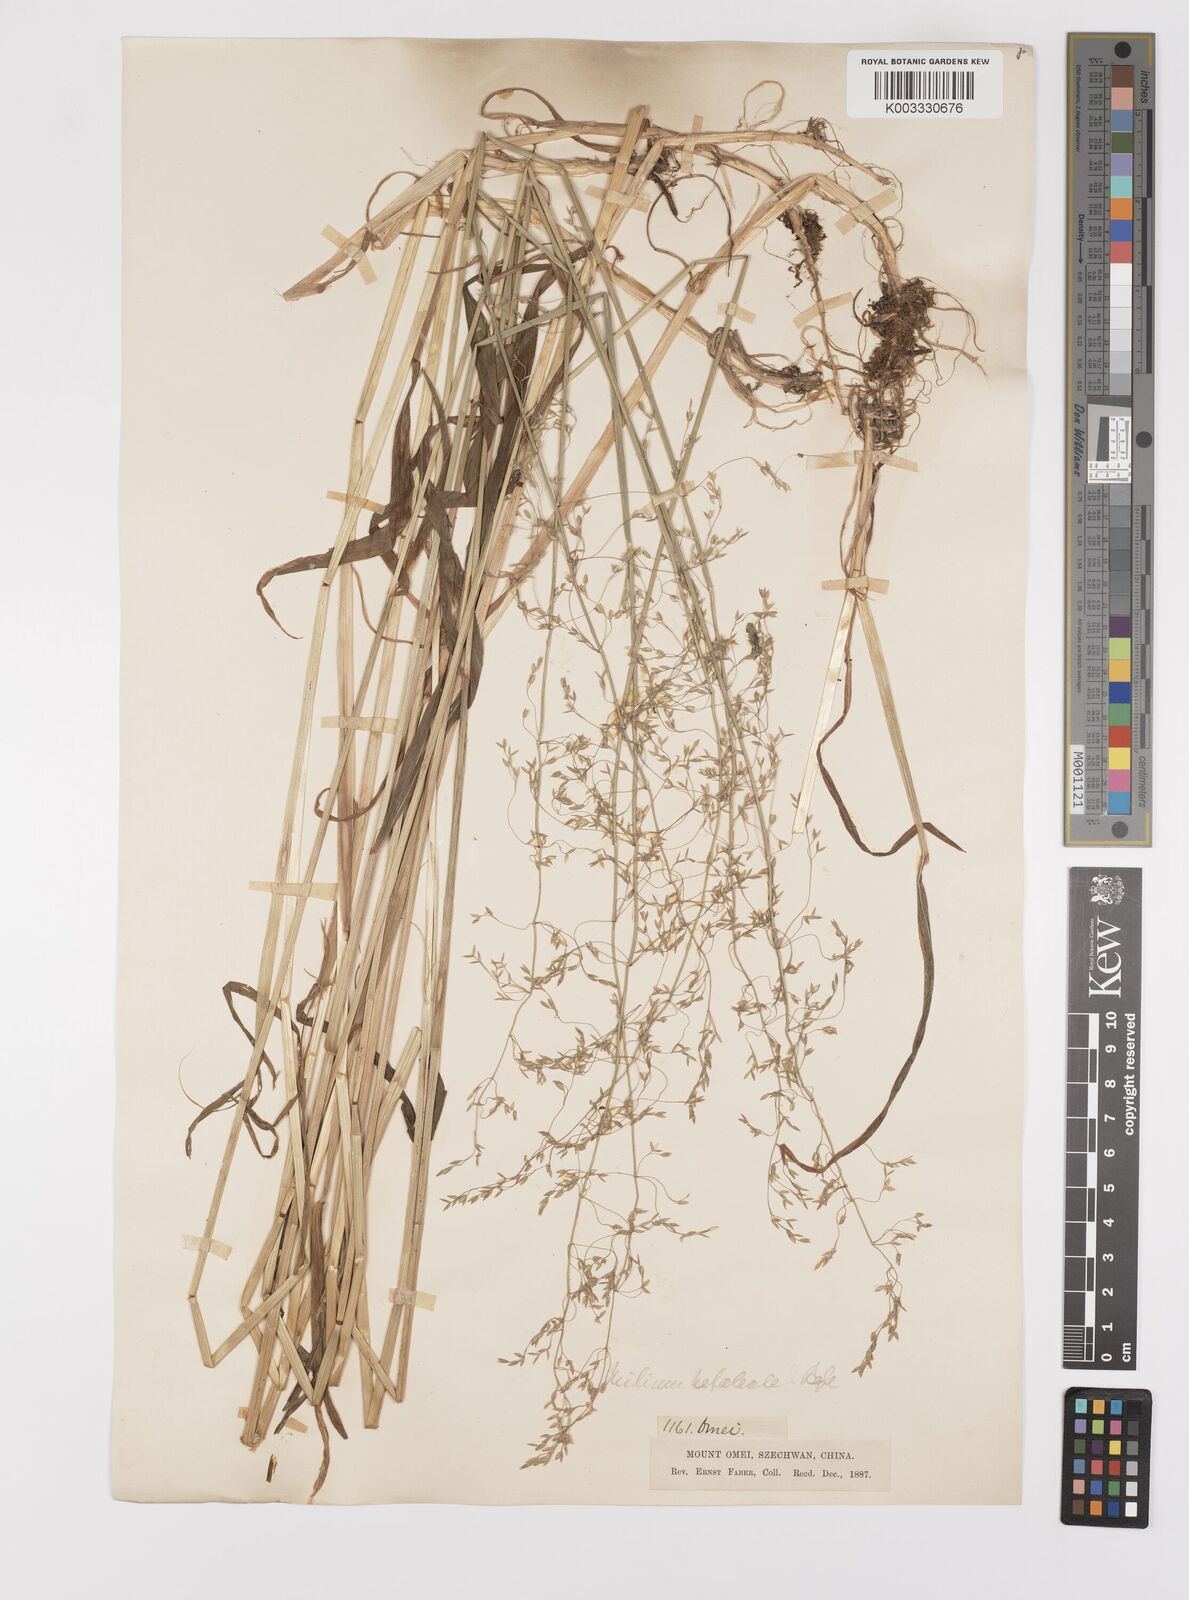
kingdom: Plantae
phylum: Tracheophyta
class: Liliopsida
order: Poales
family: Poaceae
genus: Milium
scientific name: Milium effusum
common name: Wood millet
